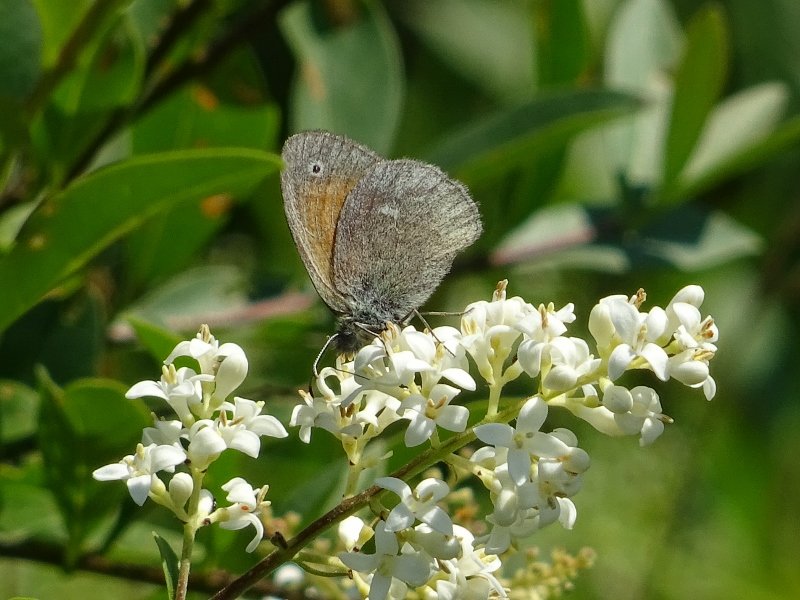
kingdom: Animalia
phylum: Arthropoda
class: Insecta
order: Lepidoptera
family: Nymphalidae
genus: Coenonympha
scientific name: Coenonympha tullia
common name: Large Heath
